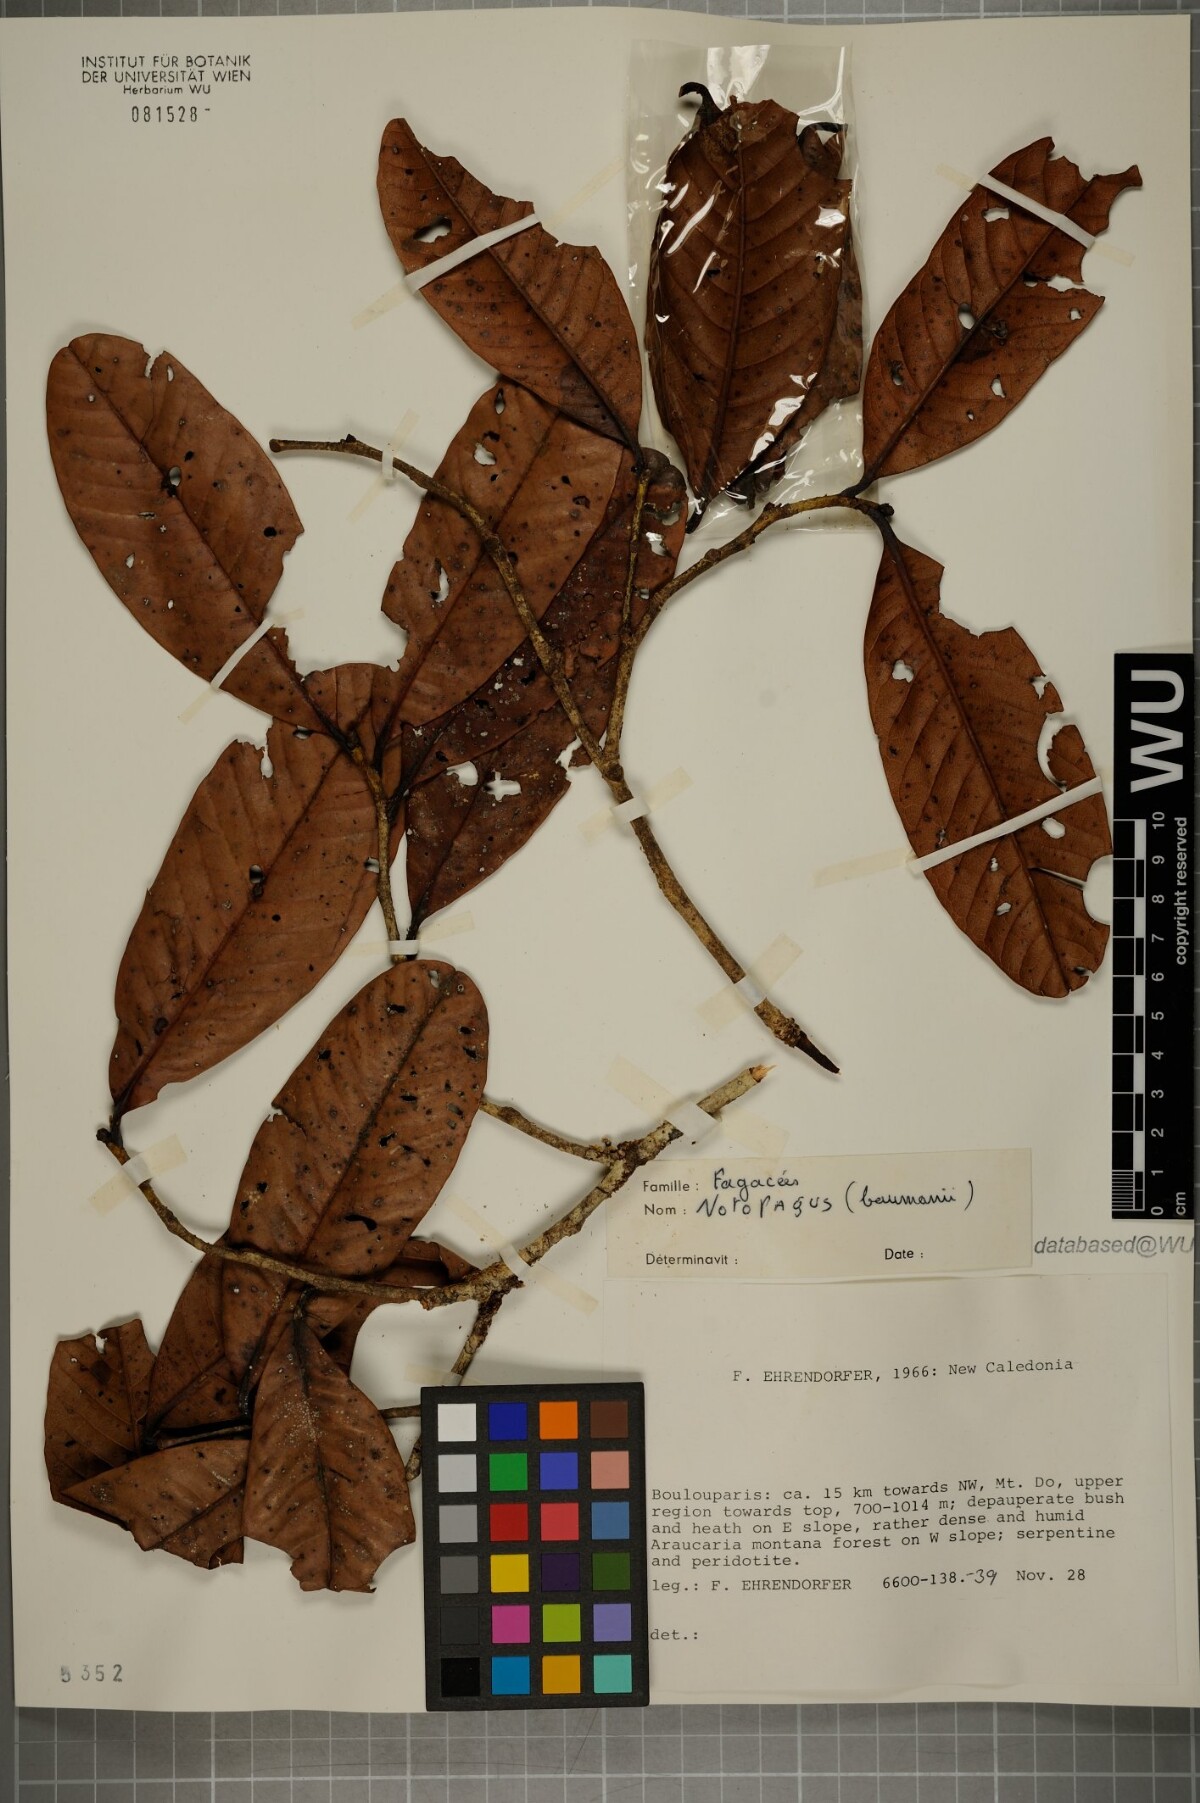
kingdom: Plantae
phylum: Tracheophyta
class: Magnoliopsida
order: Fagales
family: Nothofagaceae
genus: Nothofagus
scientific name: Nothofagus baumanniae
